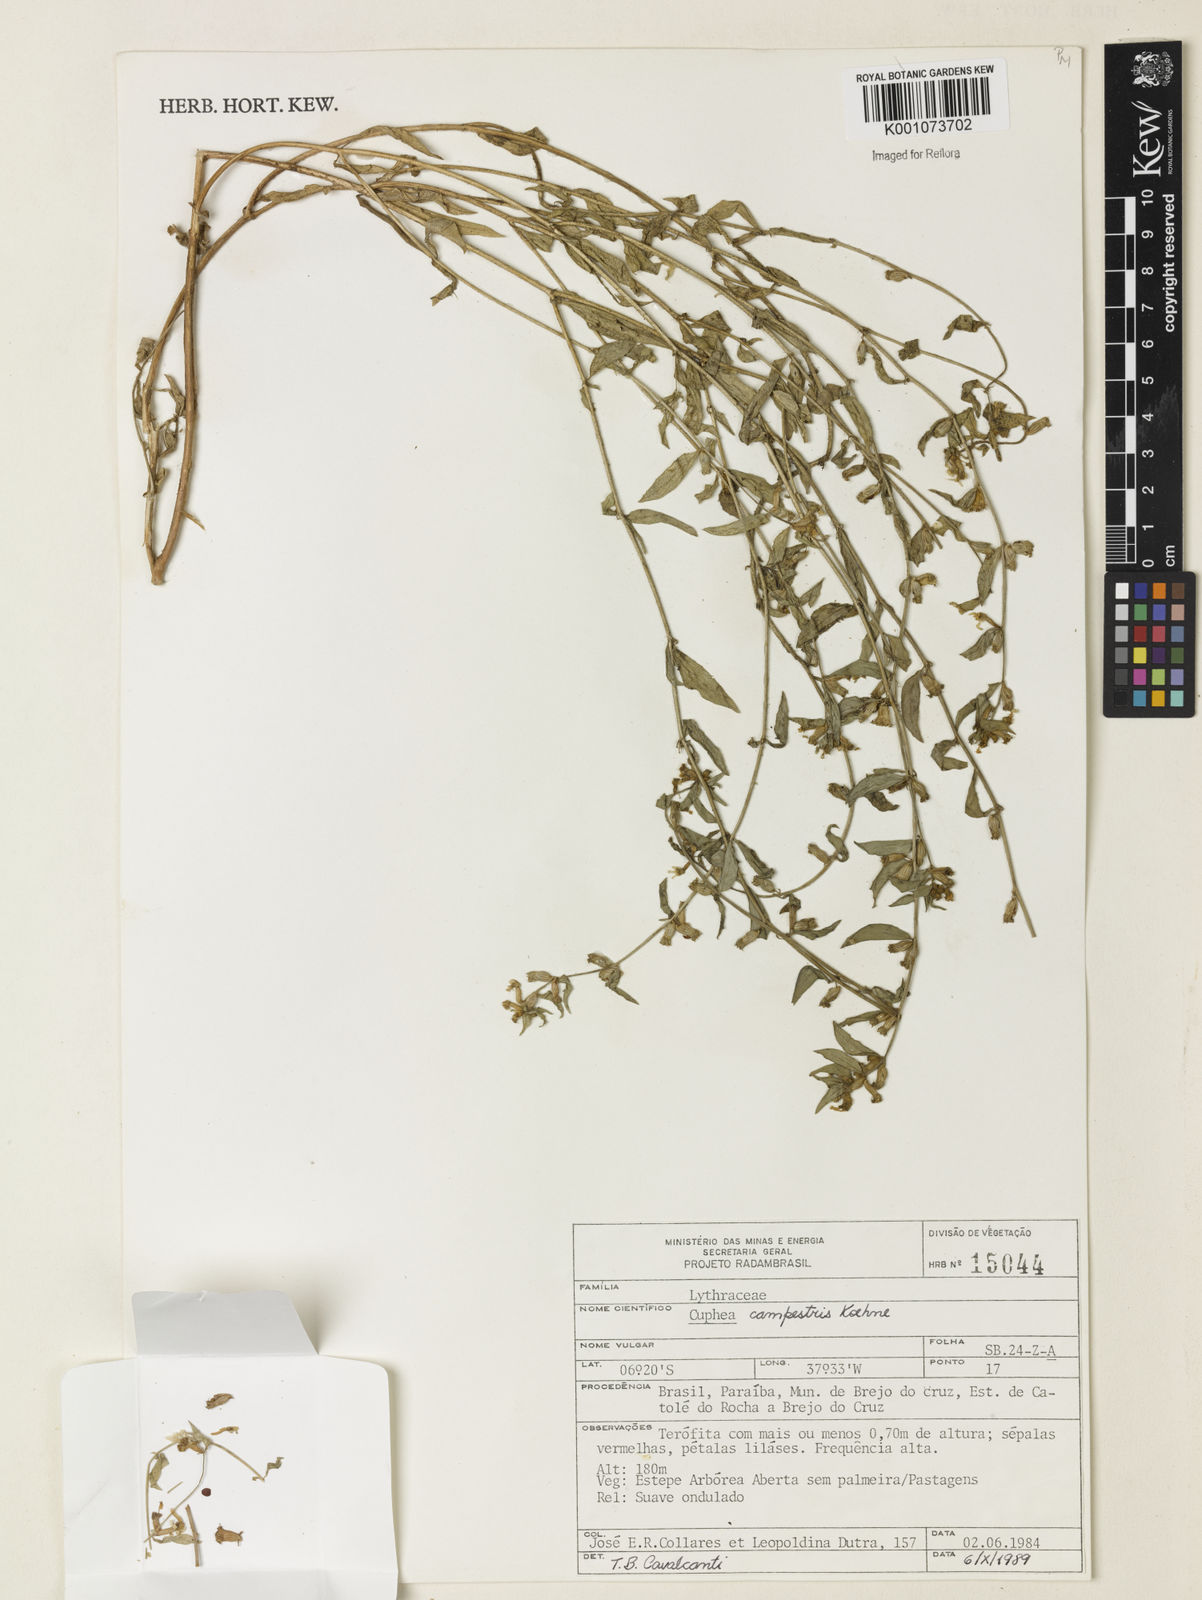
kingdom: Plantae
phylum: Tracheophyta
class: Magnoliopsida
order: Myrtales
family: Lythraceae
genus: Cuphea
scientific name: Cuphea campestris
